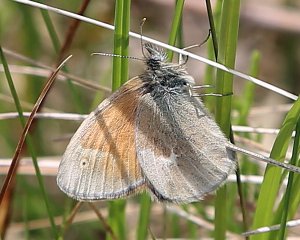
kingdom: Animalia
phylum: Arthropoda
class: Insecta
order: Lepidoptera
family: Nymphalidae
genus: Coenonympha
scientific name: Coenonympha tullia
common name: Large Heath
